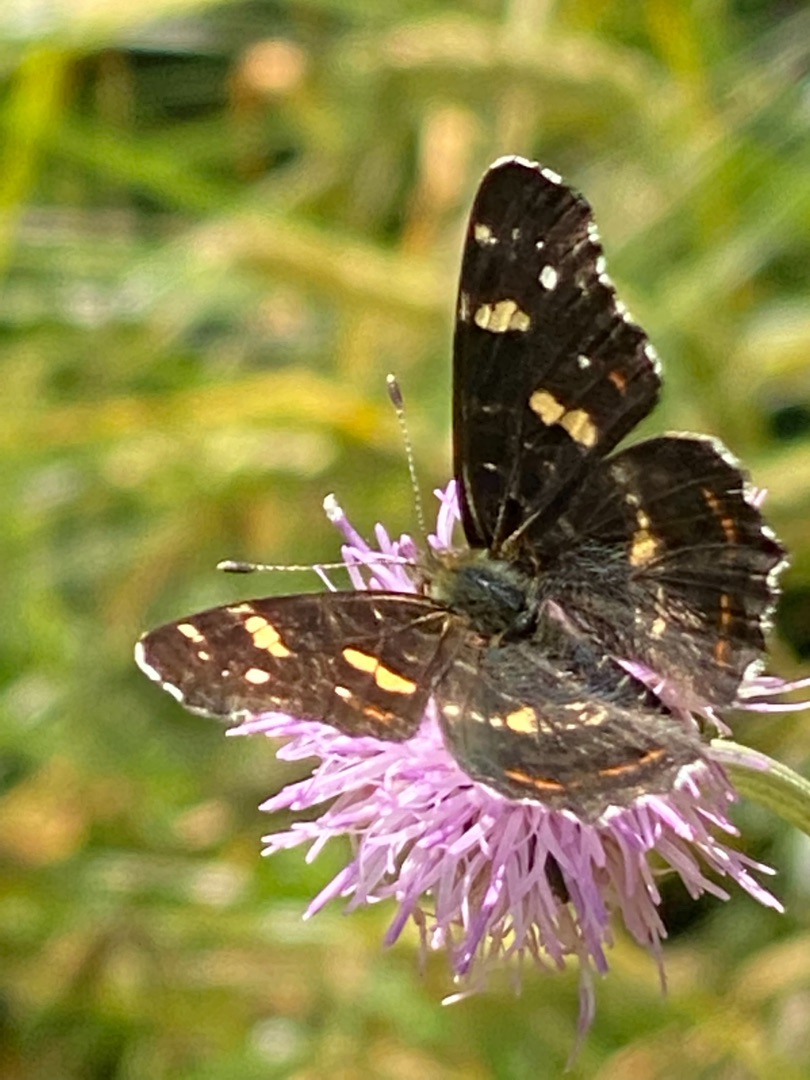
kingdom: Animalia
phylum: Arthropoda
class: Insecta
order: Lepidoptera
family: Nymphalidae
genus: Araschnia
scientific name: Araschnia levana
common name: Nældesommerfugl
